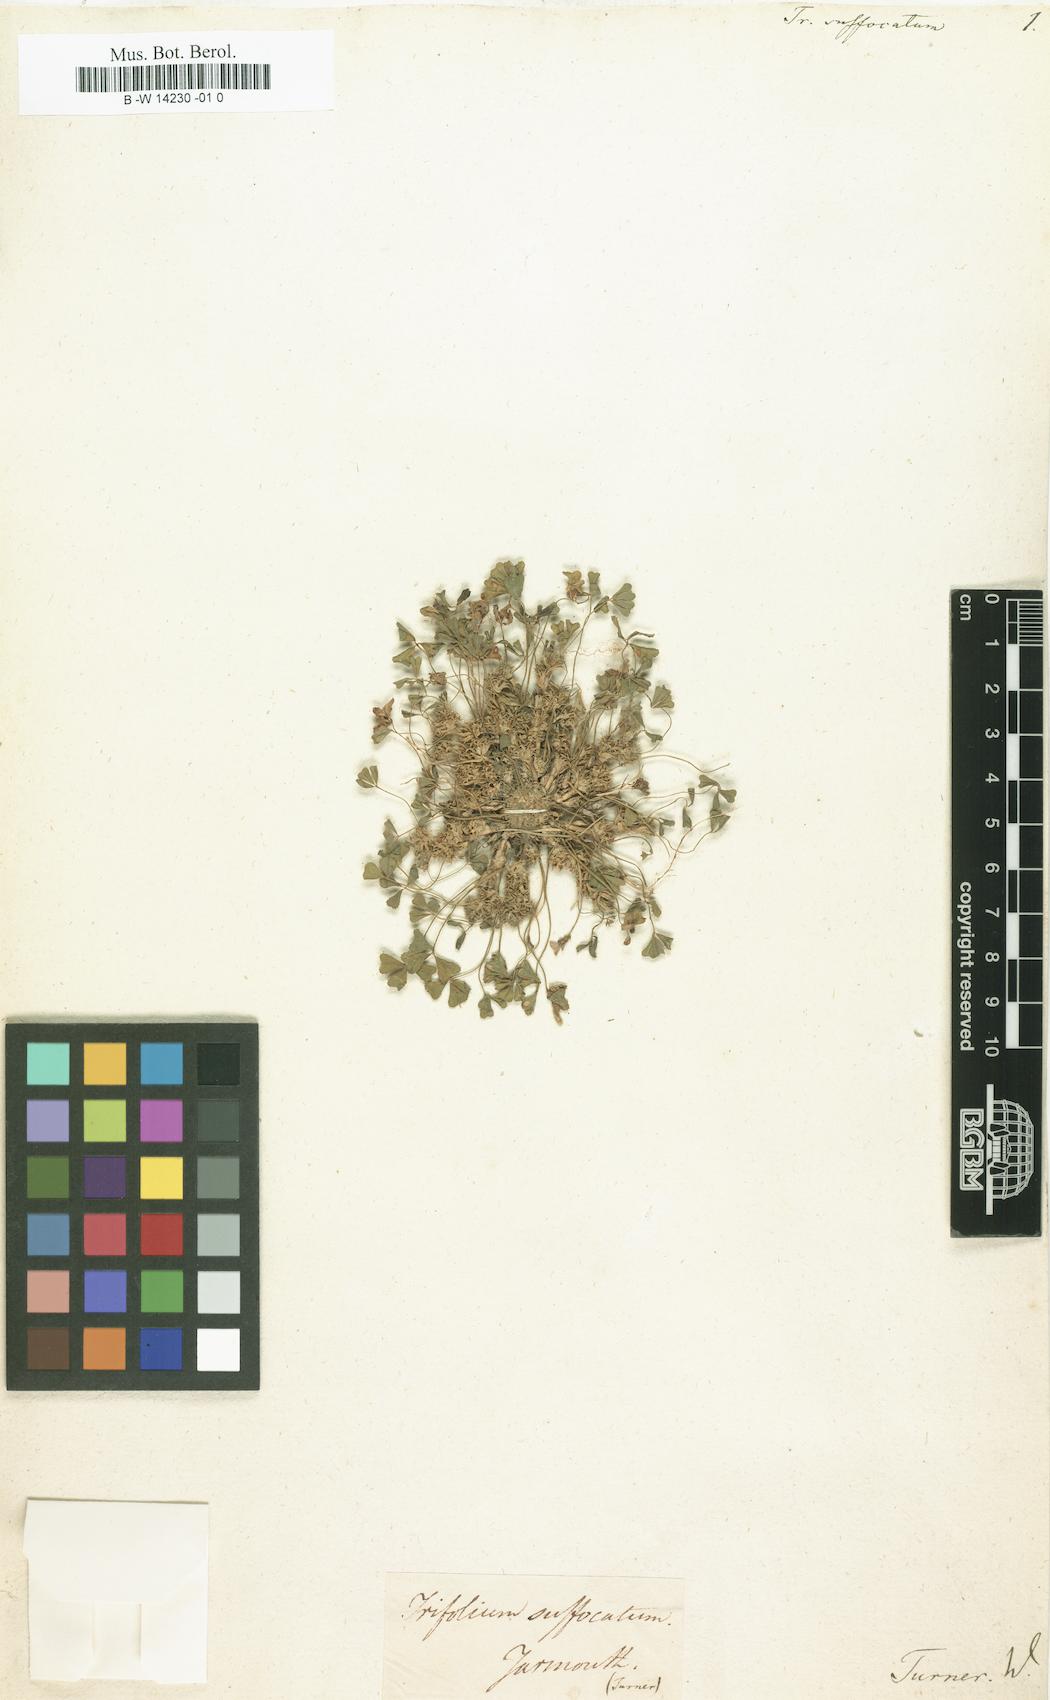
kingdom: Plantae
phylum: Tracheophyta
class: Magnoliopsida
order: Fabales
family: Fabaceae
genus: Trifolium
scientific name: Trifolium suffocatum
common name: Suffocated clover
